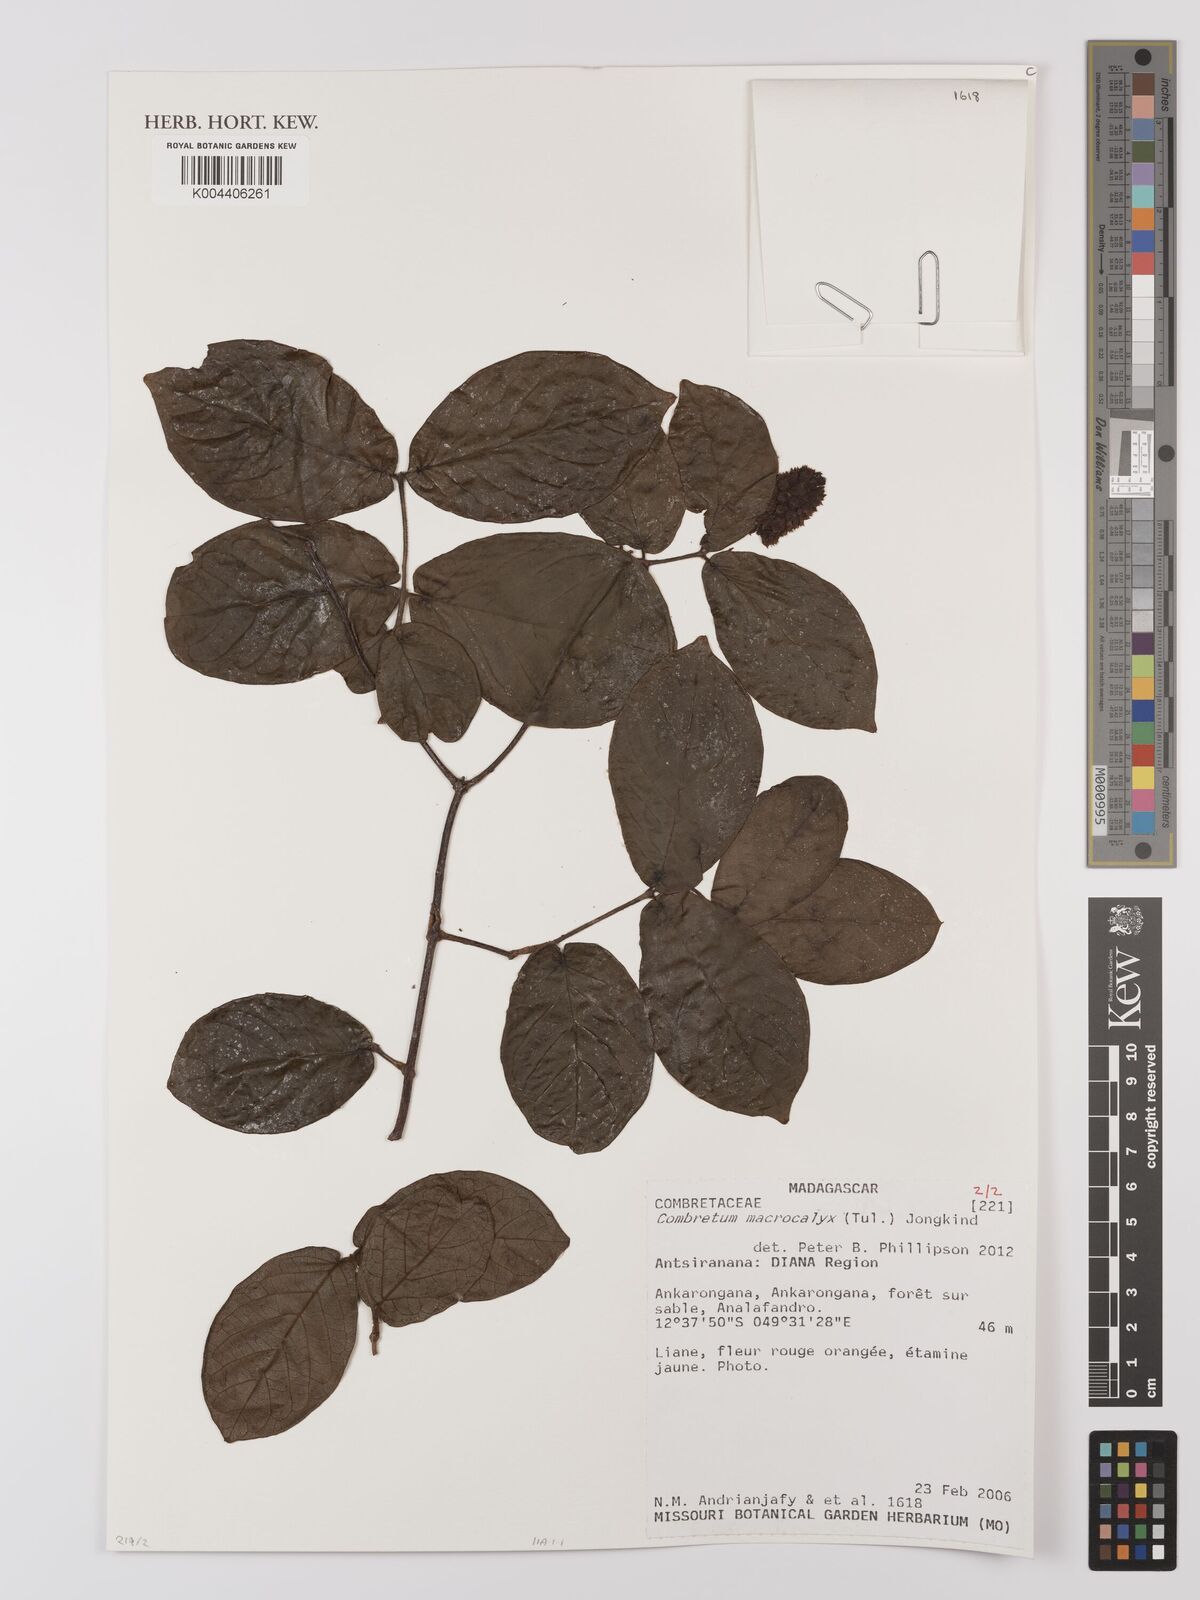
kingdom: Plantae
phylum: Tracheophyta
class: Magnoliopsida
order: Myrtales
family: Combretaceae
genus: Combretum
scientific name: Combretum macrocalyx
